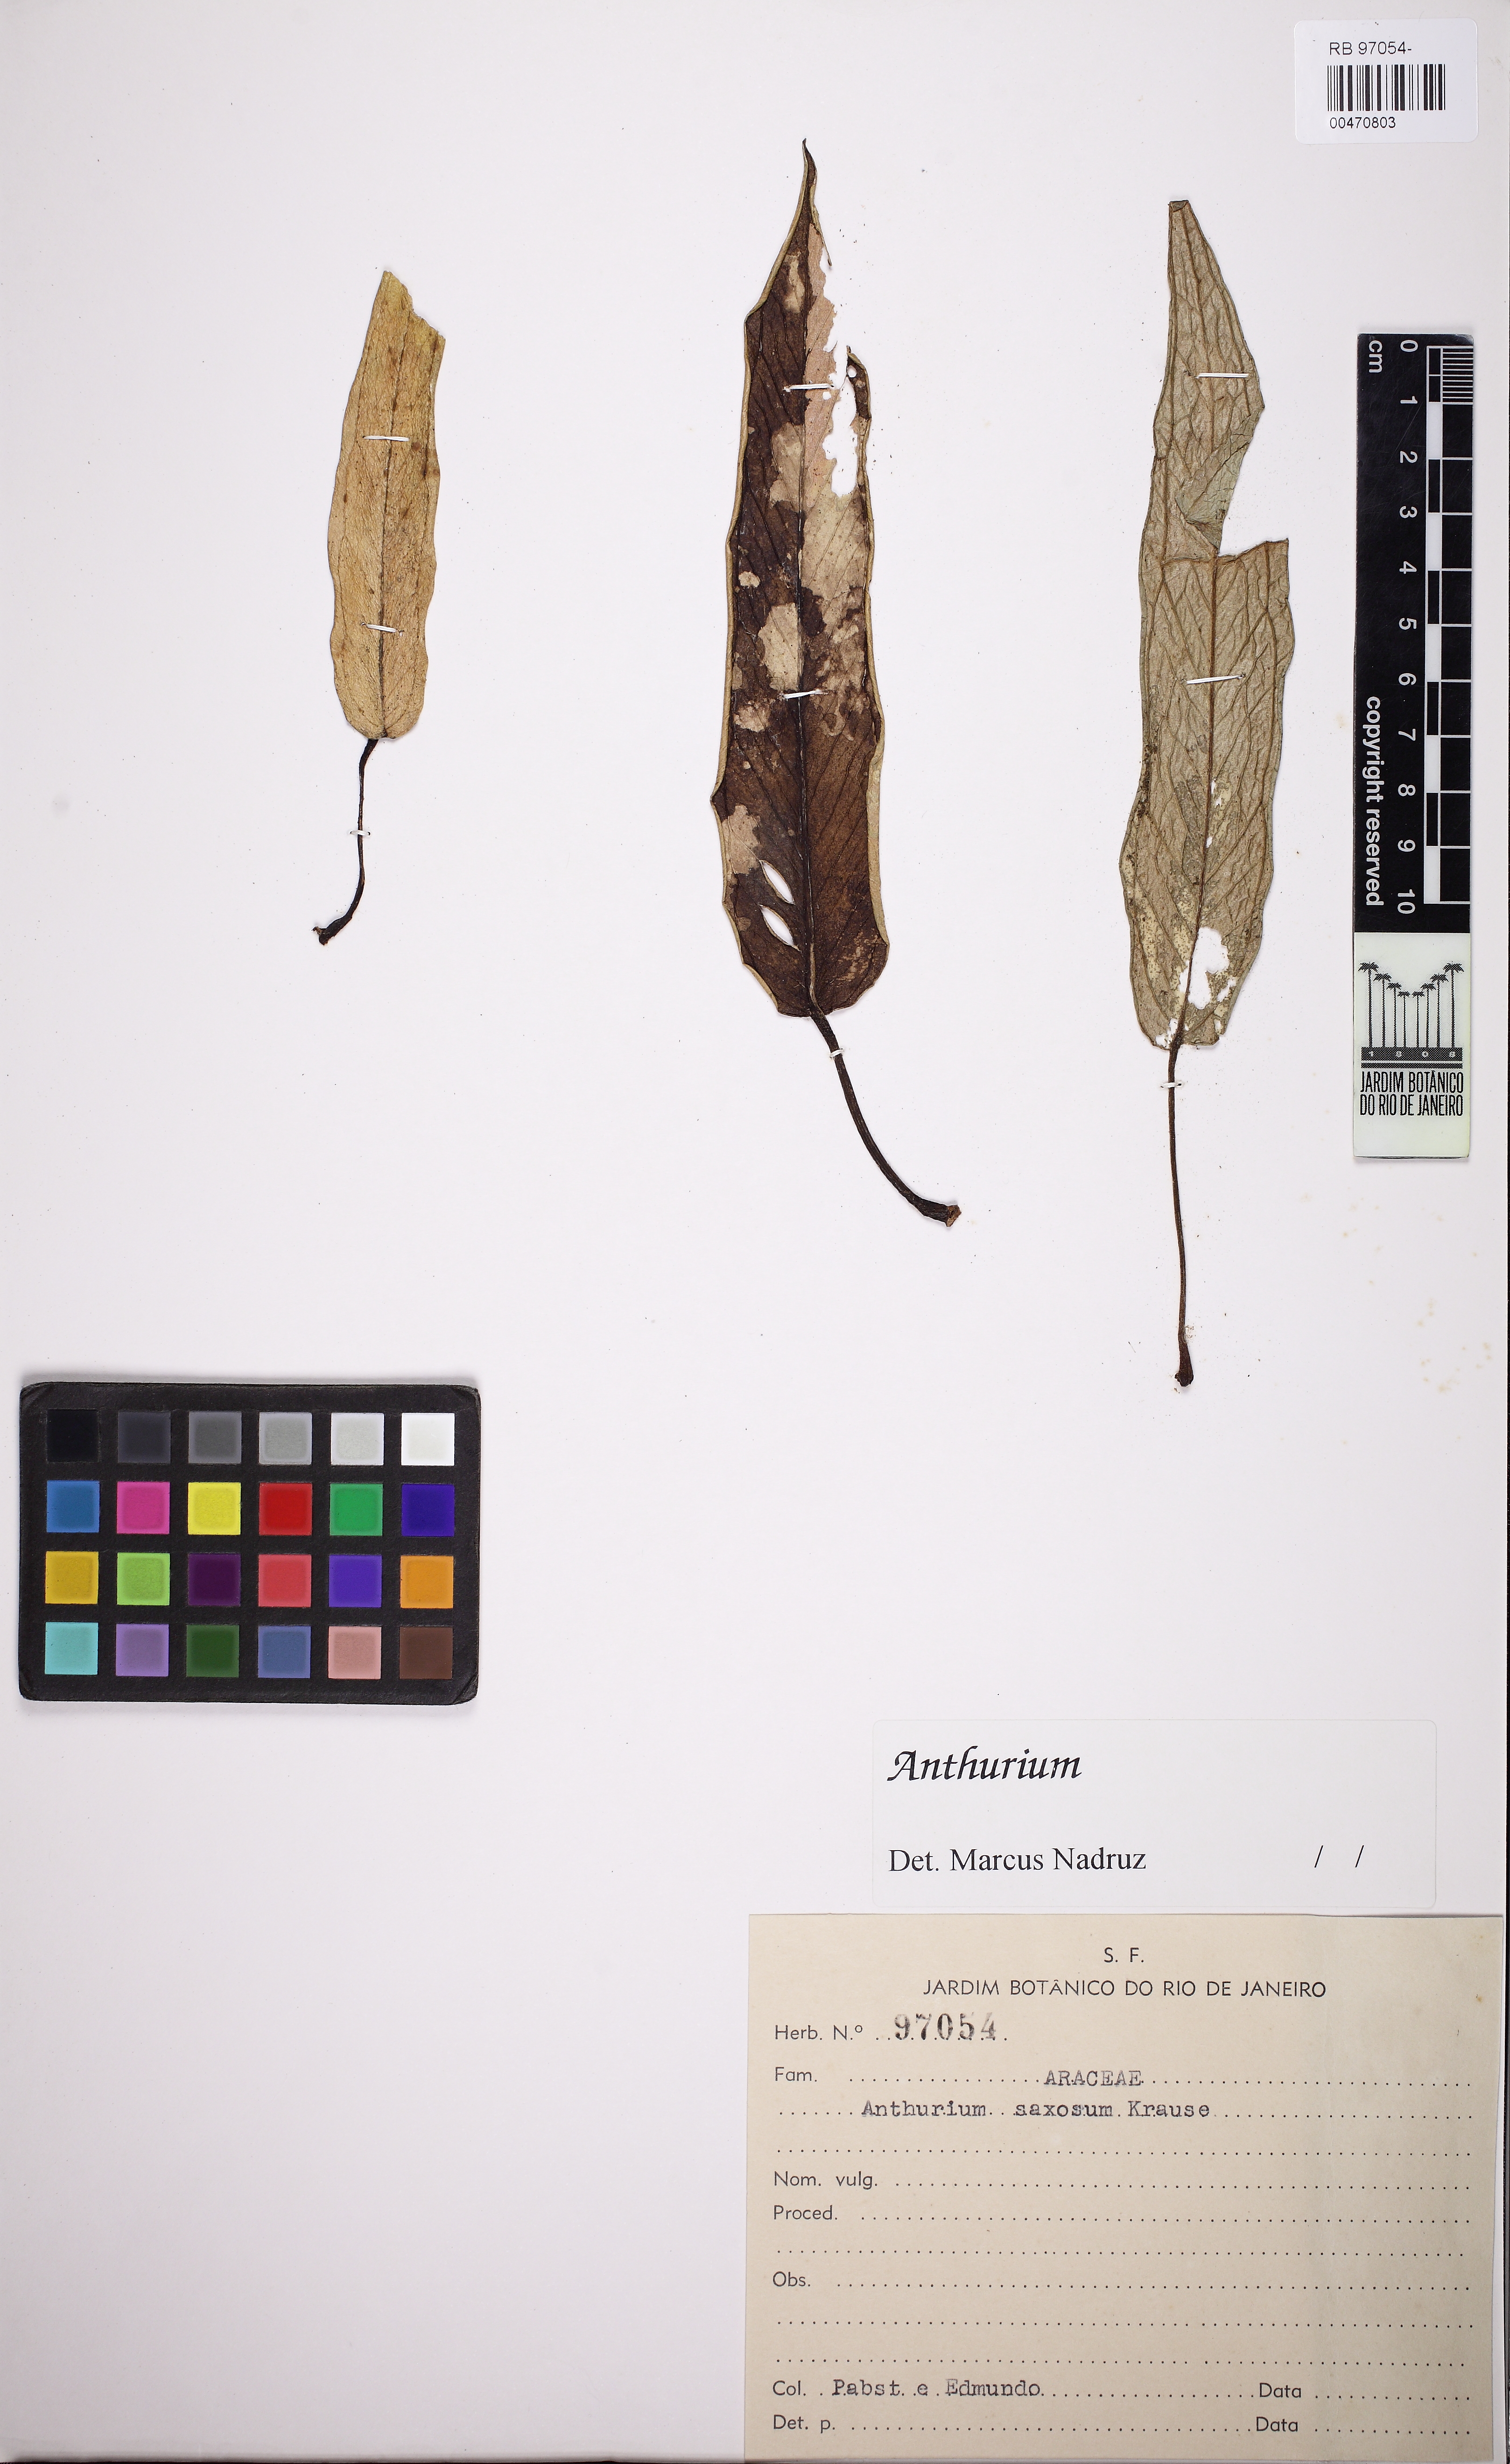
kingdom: Plantae
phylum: Tracheophyta
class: Liliopsida
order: Alismatales
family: Araceae
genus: Anthurium
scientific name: Anthurium mourae
